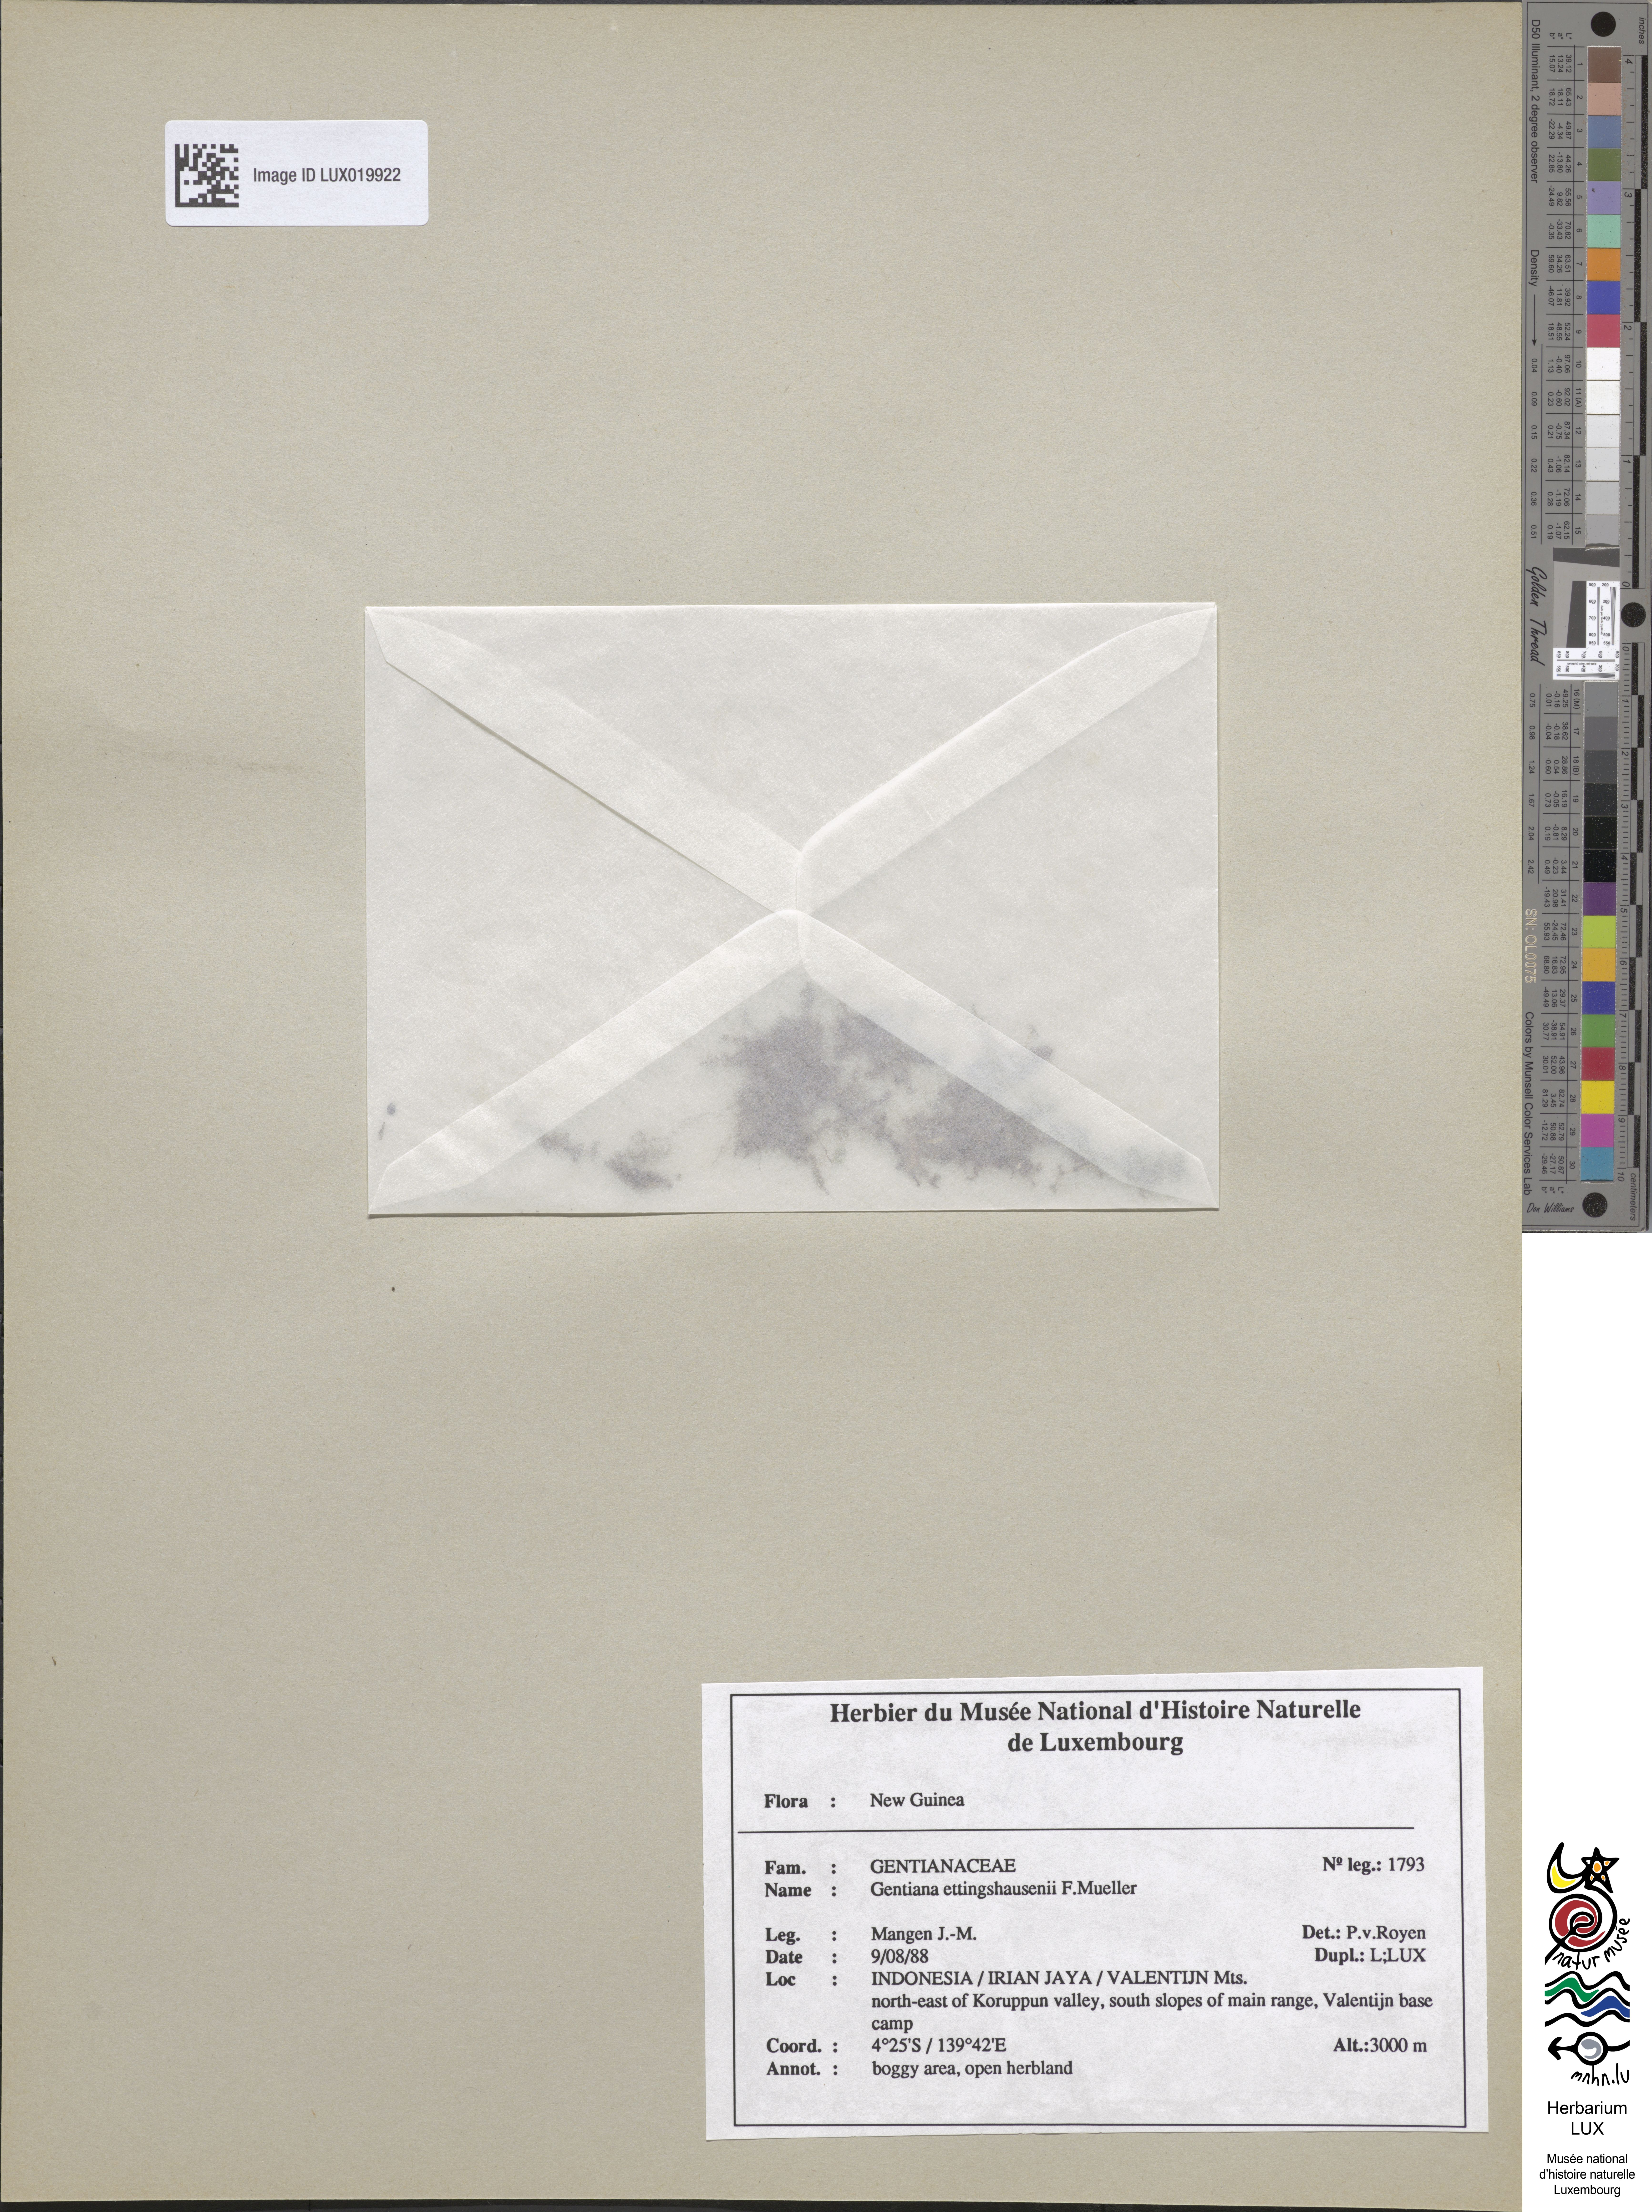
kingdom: Plantae
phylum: Tracheophyta
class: Magnoliopsida
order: Gentianales
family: Gentianaceae
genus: Gentiana
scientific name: Gentiana ettingshausenii
